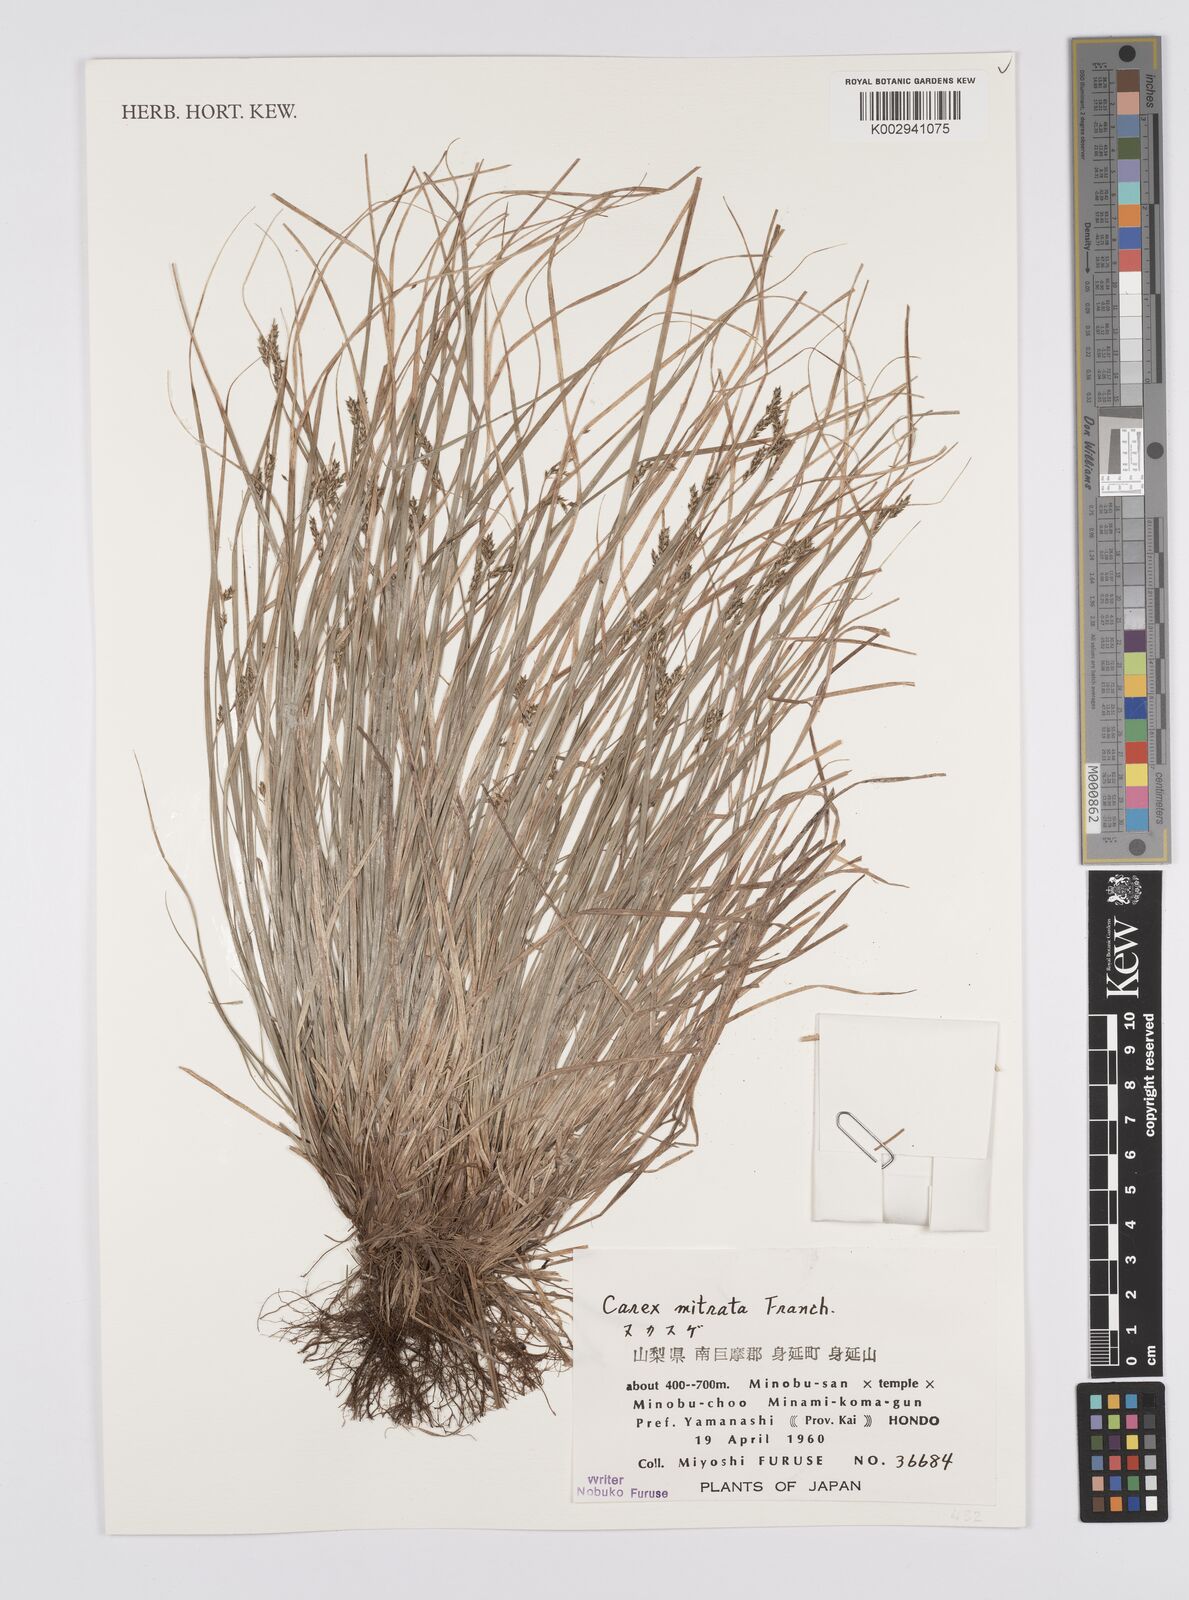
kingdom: Plantae
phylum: Tracheophyta
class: Liliopsida
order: Poales
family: Cyperaceae
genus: Carex
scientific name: Carex mitrata
